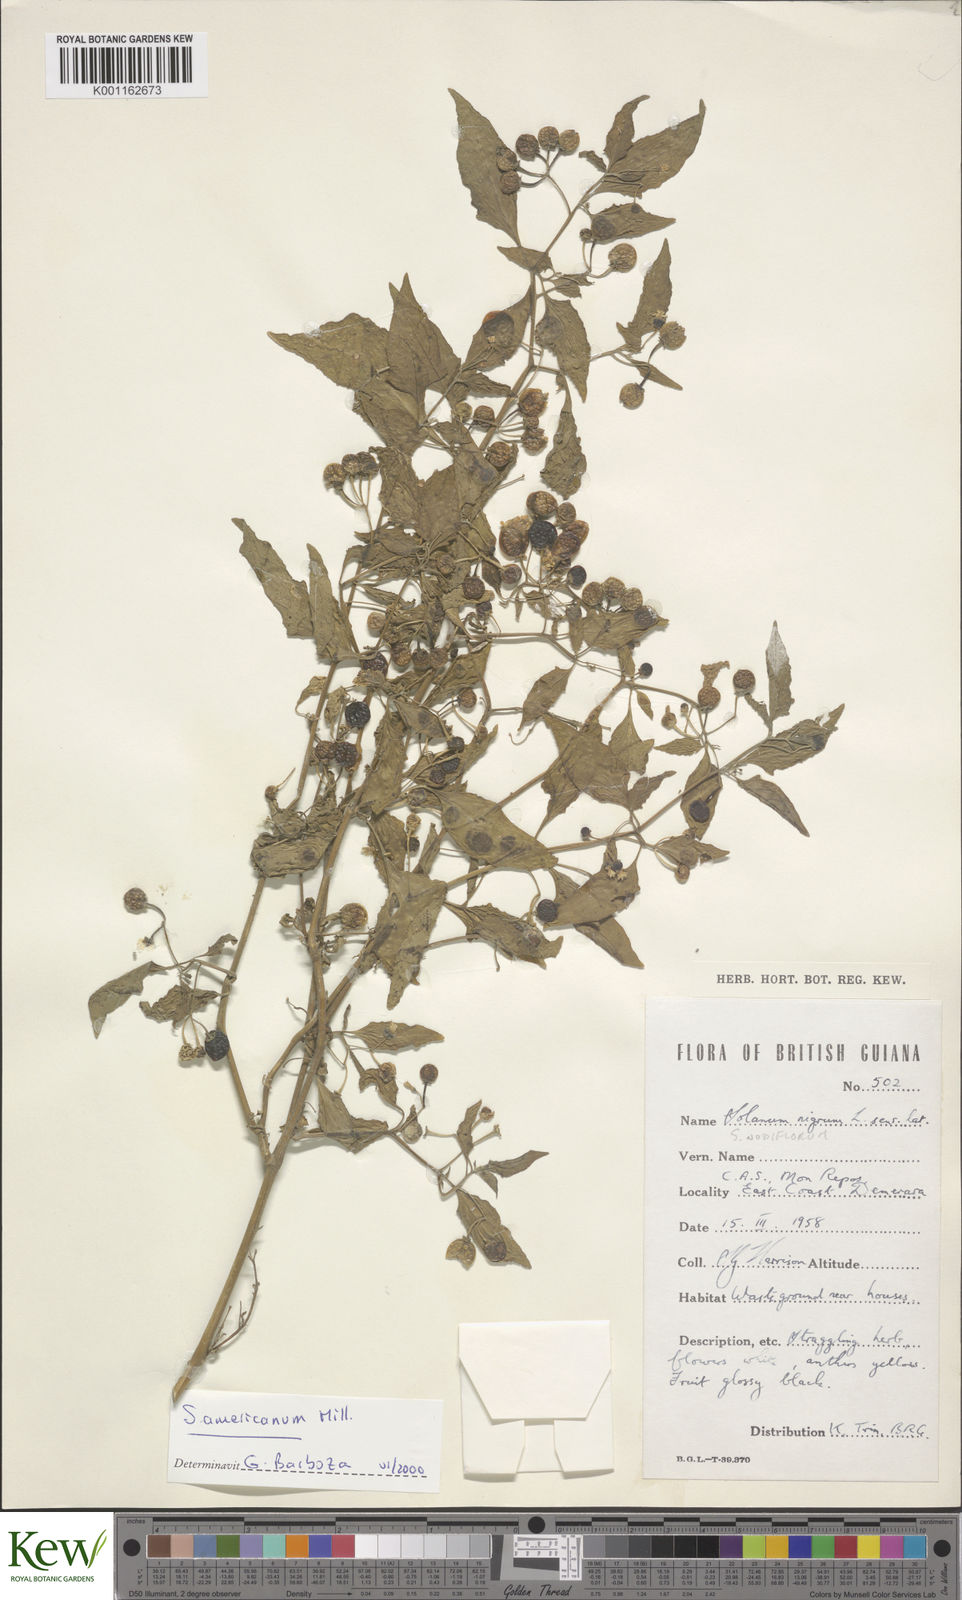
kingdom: Plantae
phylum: Tracheophyta
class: Magnoliopsida
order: Solanales
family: Solanaceae
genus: Solanum
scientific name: Solanum americanum
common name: American black nightshade
